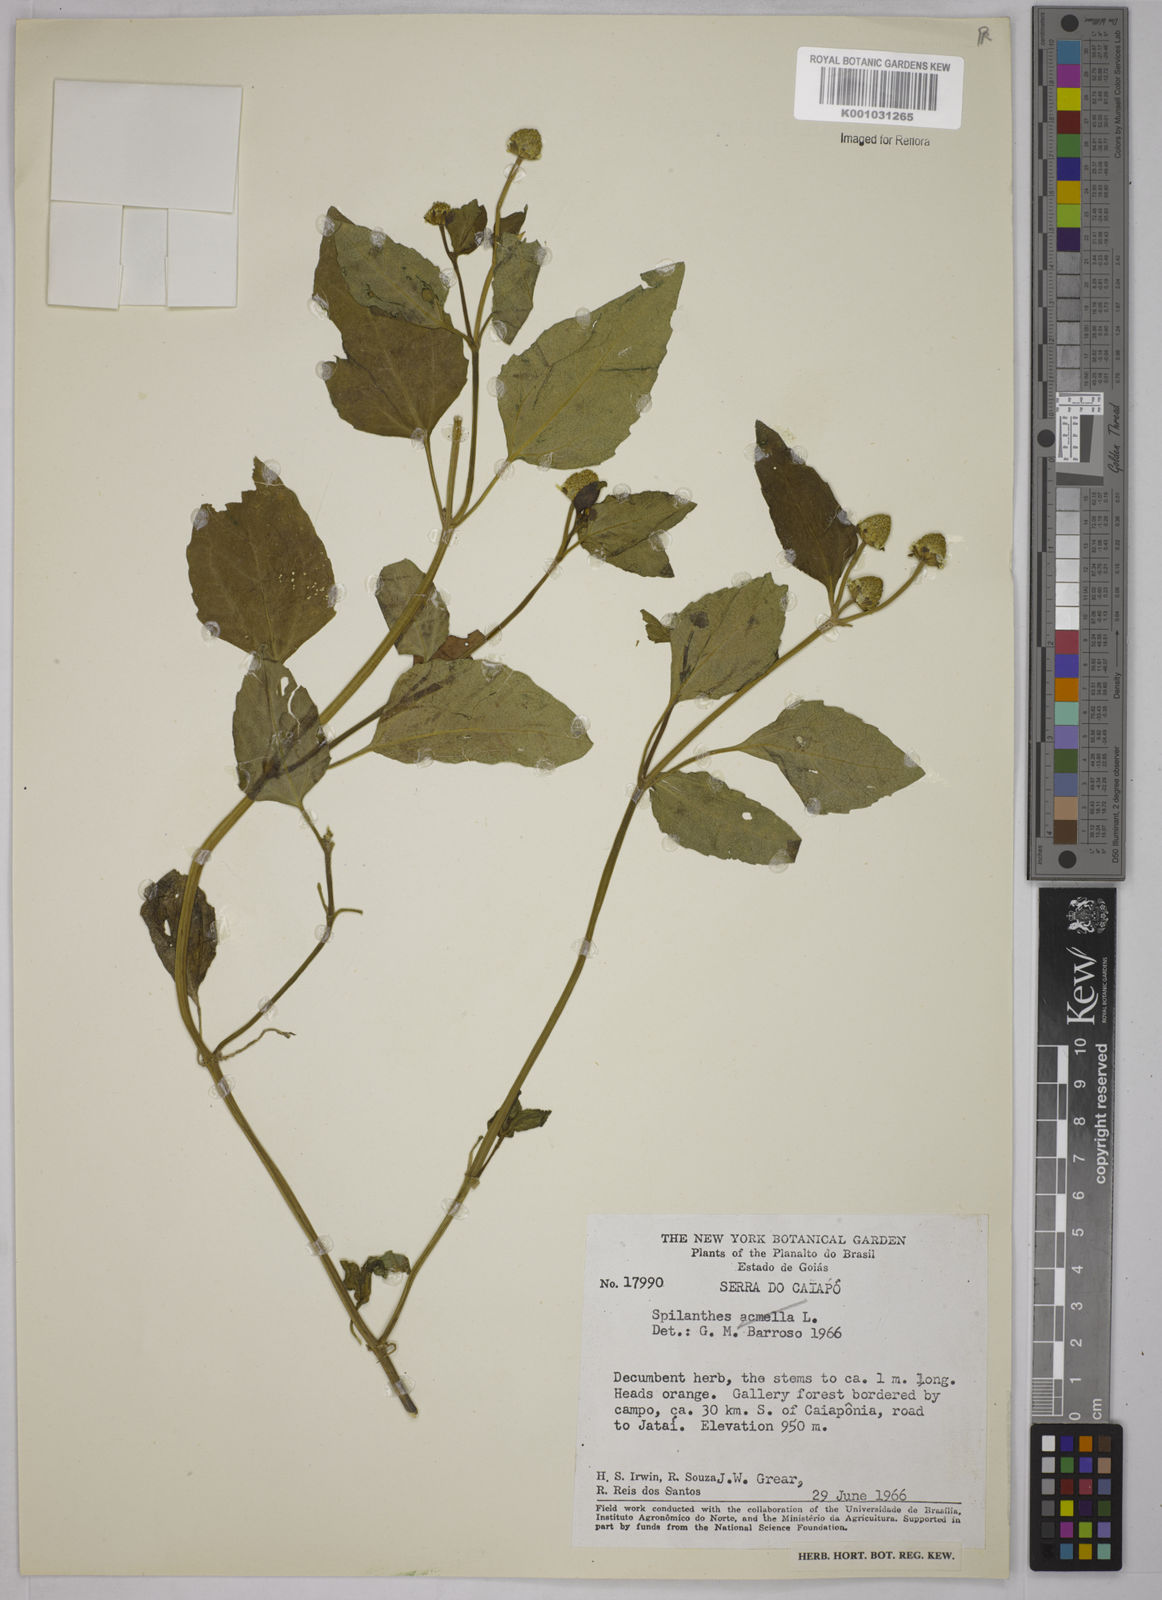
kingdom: Plantae
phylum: Tracheophyta
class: Magnoliopsida
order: Asterales
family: Asteraceae
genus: Acmella
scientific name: Acmella ciliata
